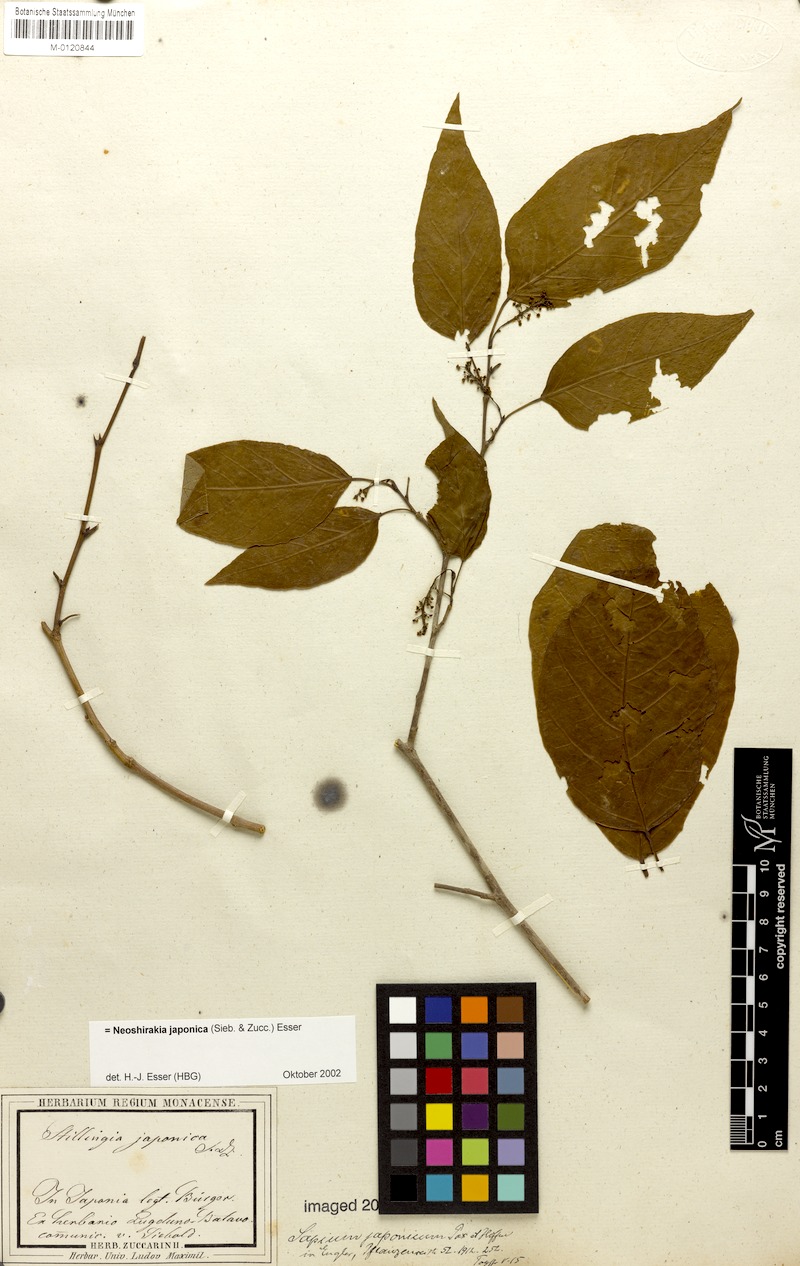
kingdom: Plantae
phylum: Tracheophyta
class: Magnoliopsida
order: Malpighiales
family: Euphorbiaceae
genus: Neoshirakia
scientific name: Neoshirakia japonica
